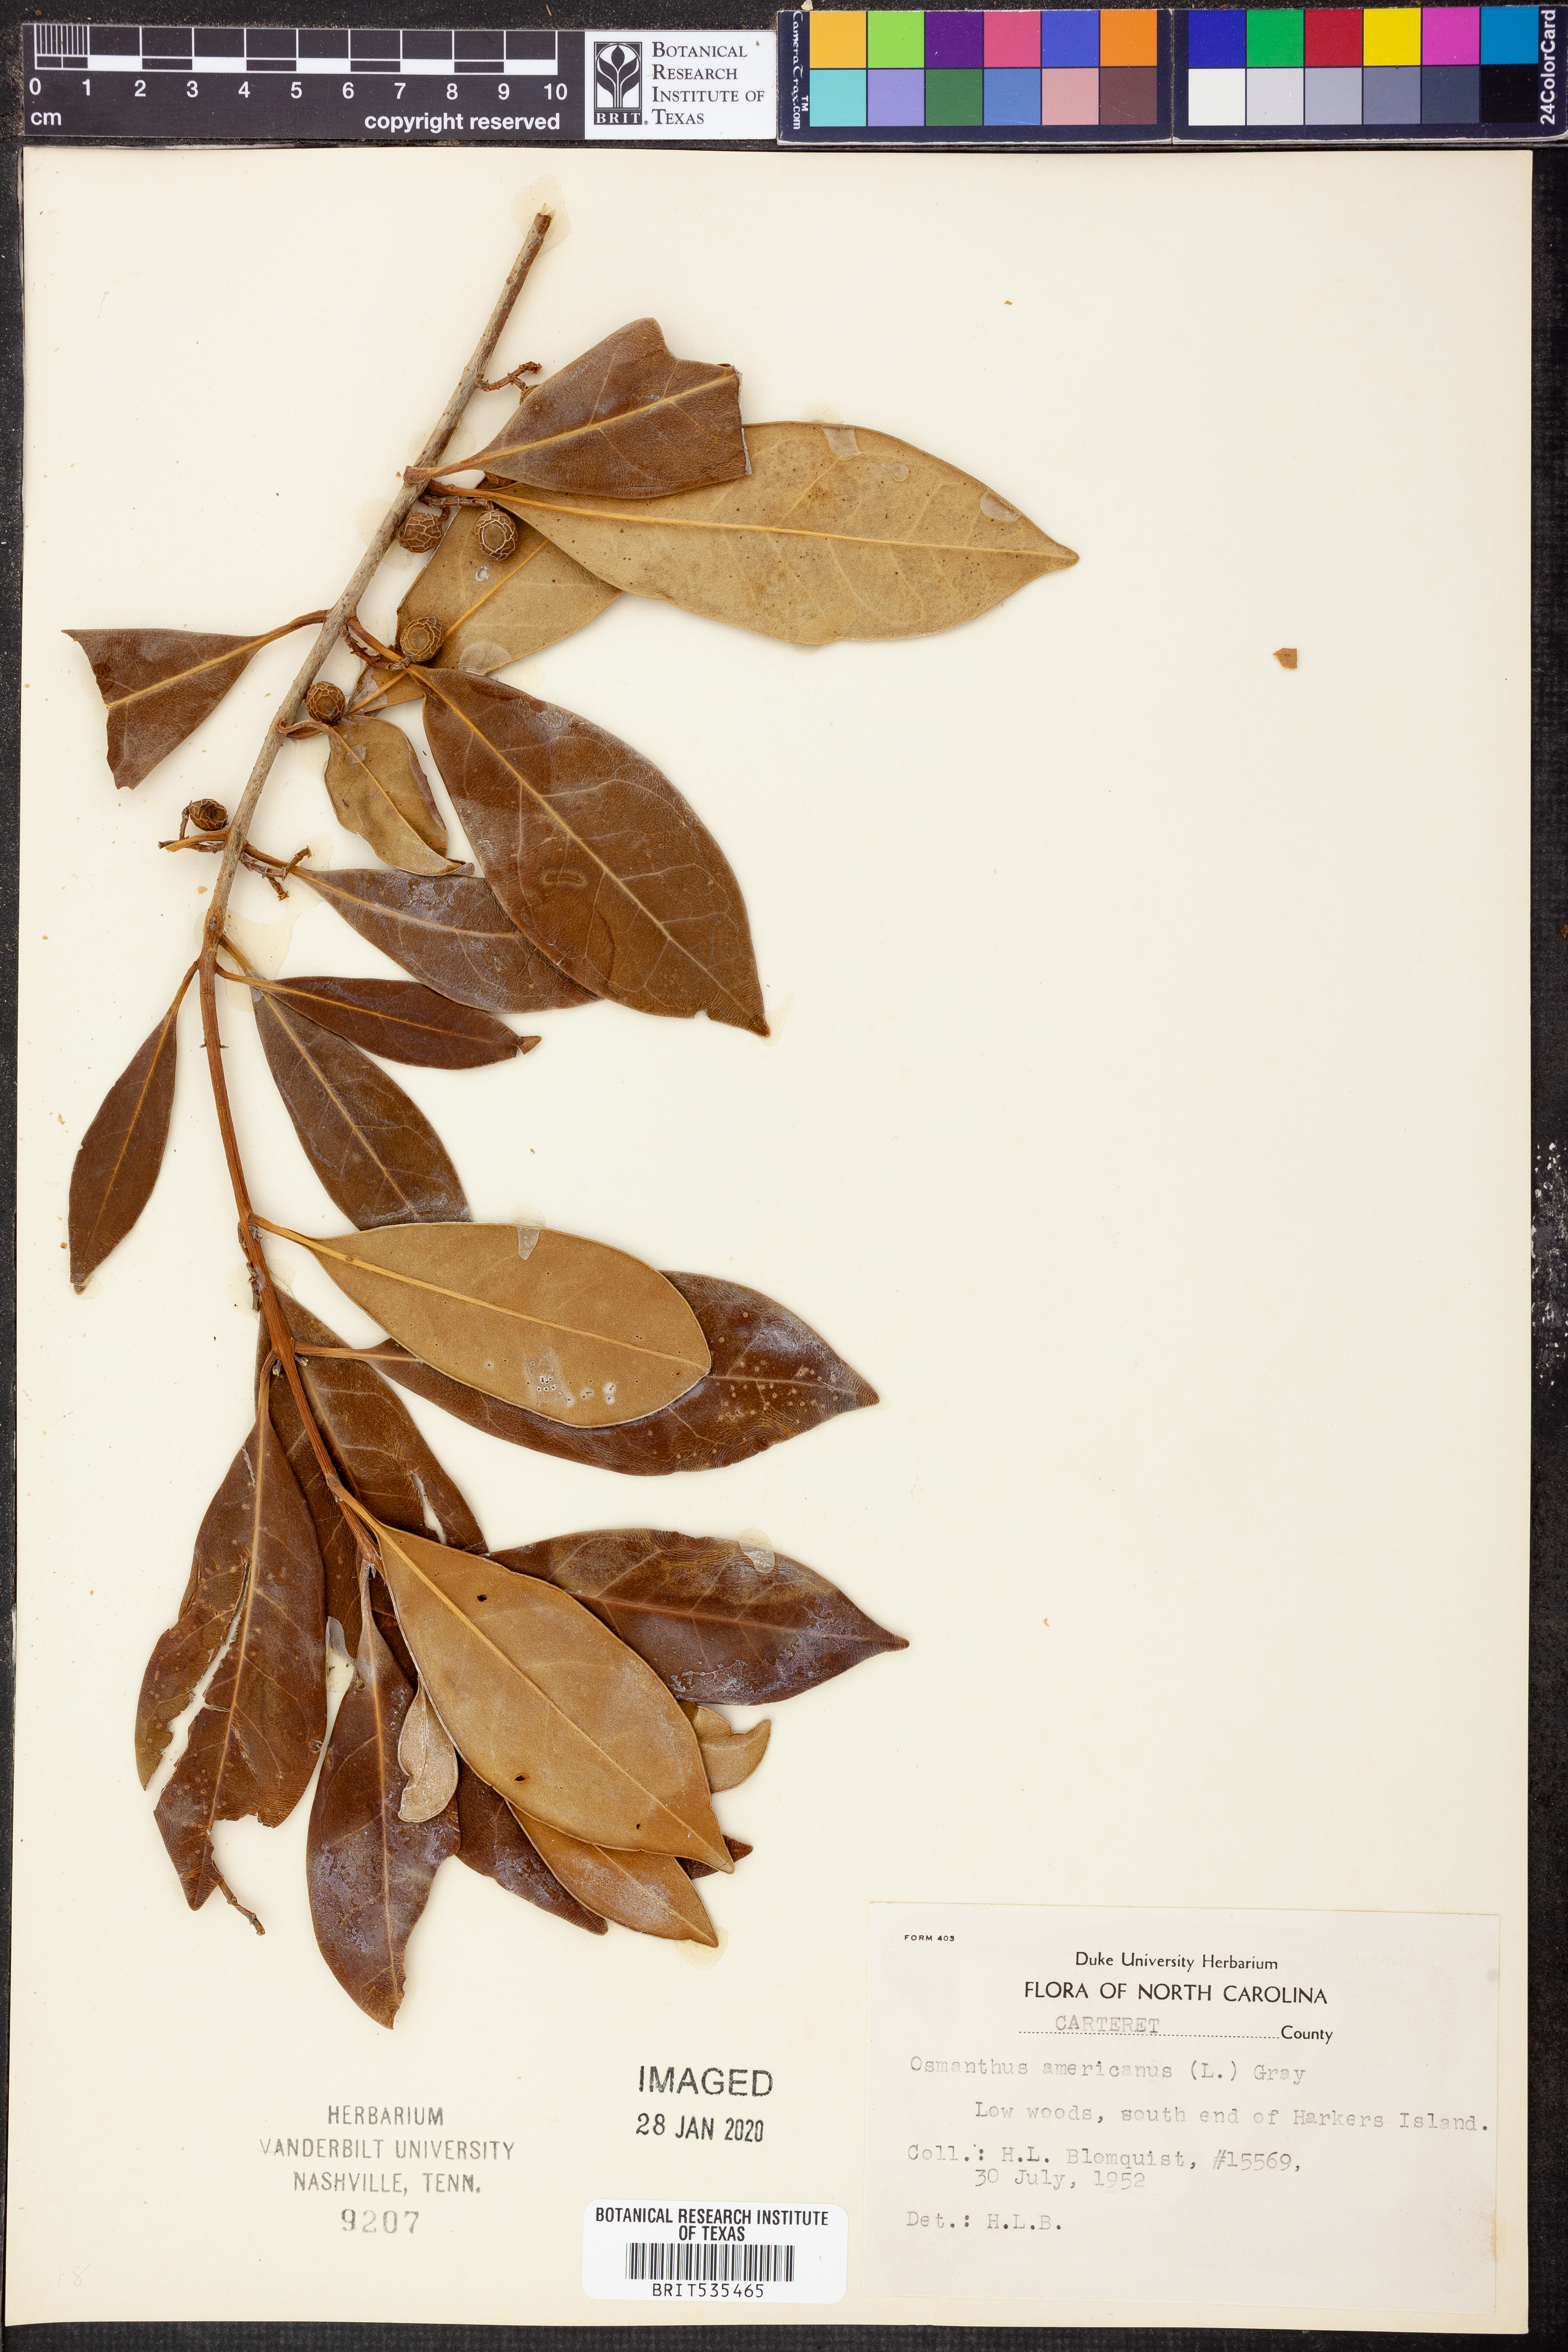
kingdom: Plantae
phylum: Tracheophyta
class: Magnoliopsida
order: Lamiales
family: Oleaceae
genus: Osmanthus
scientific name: Osmanthus americanus
